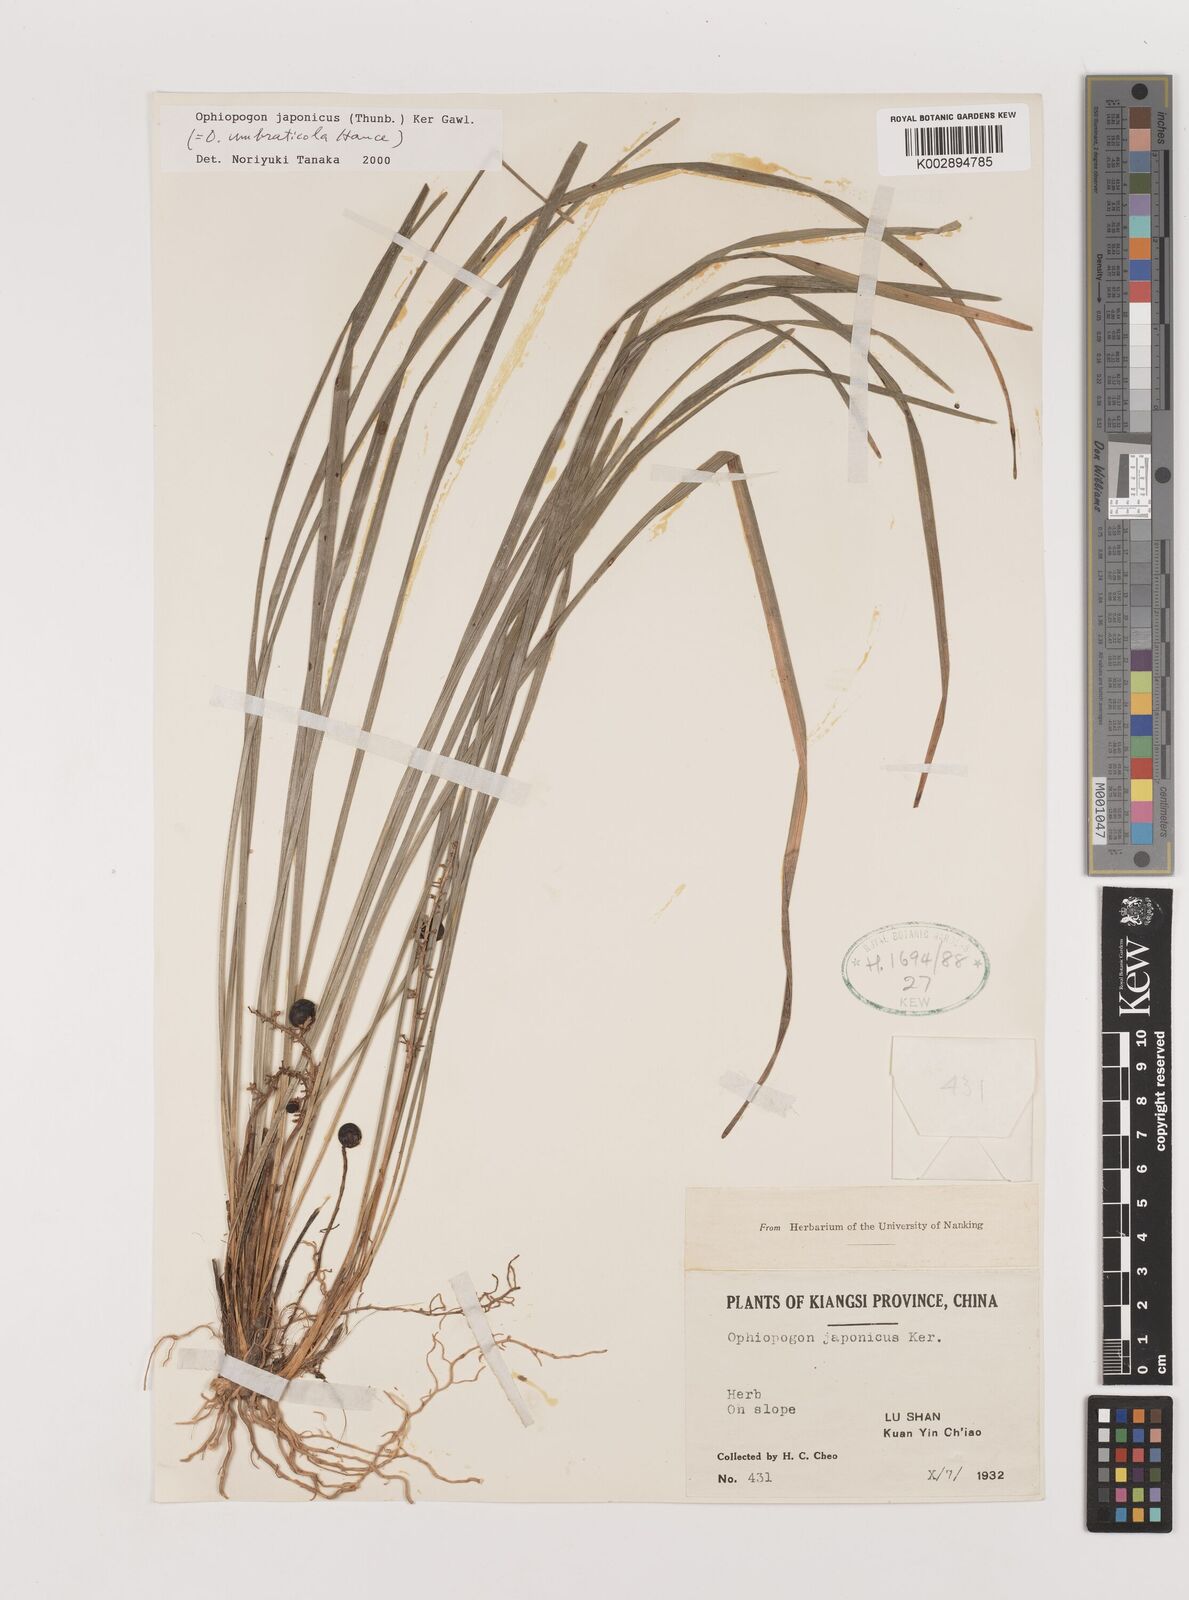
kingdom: Plantae
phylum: Tracheophyta
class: Liliopsida
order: Asparagales
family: Asparagaceae
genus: Ophiopogon
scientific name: Ophiopogon japonicus
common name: Dwarf lilyturf
